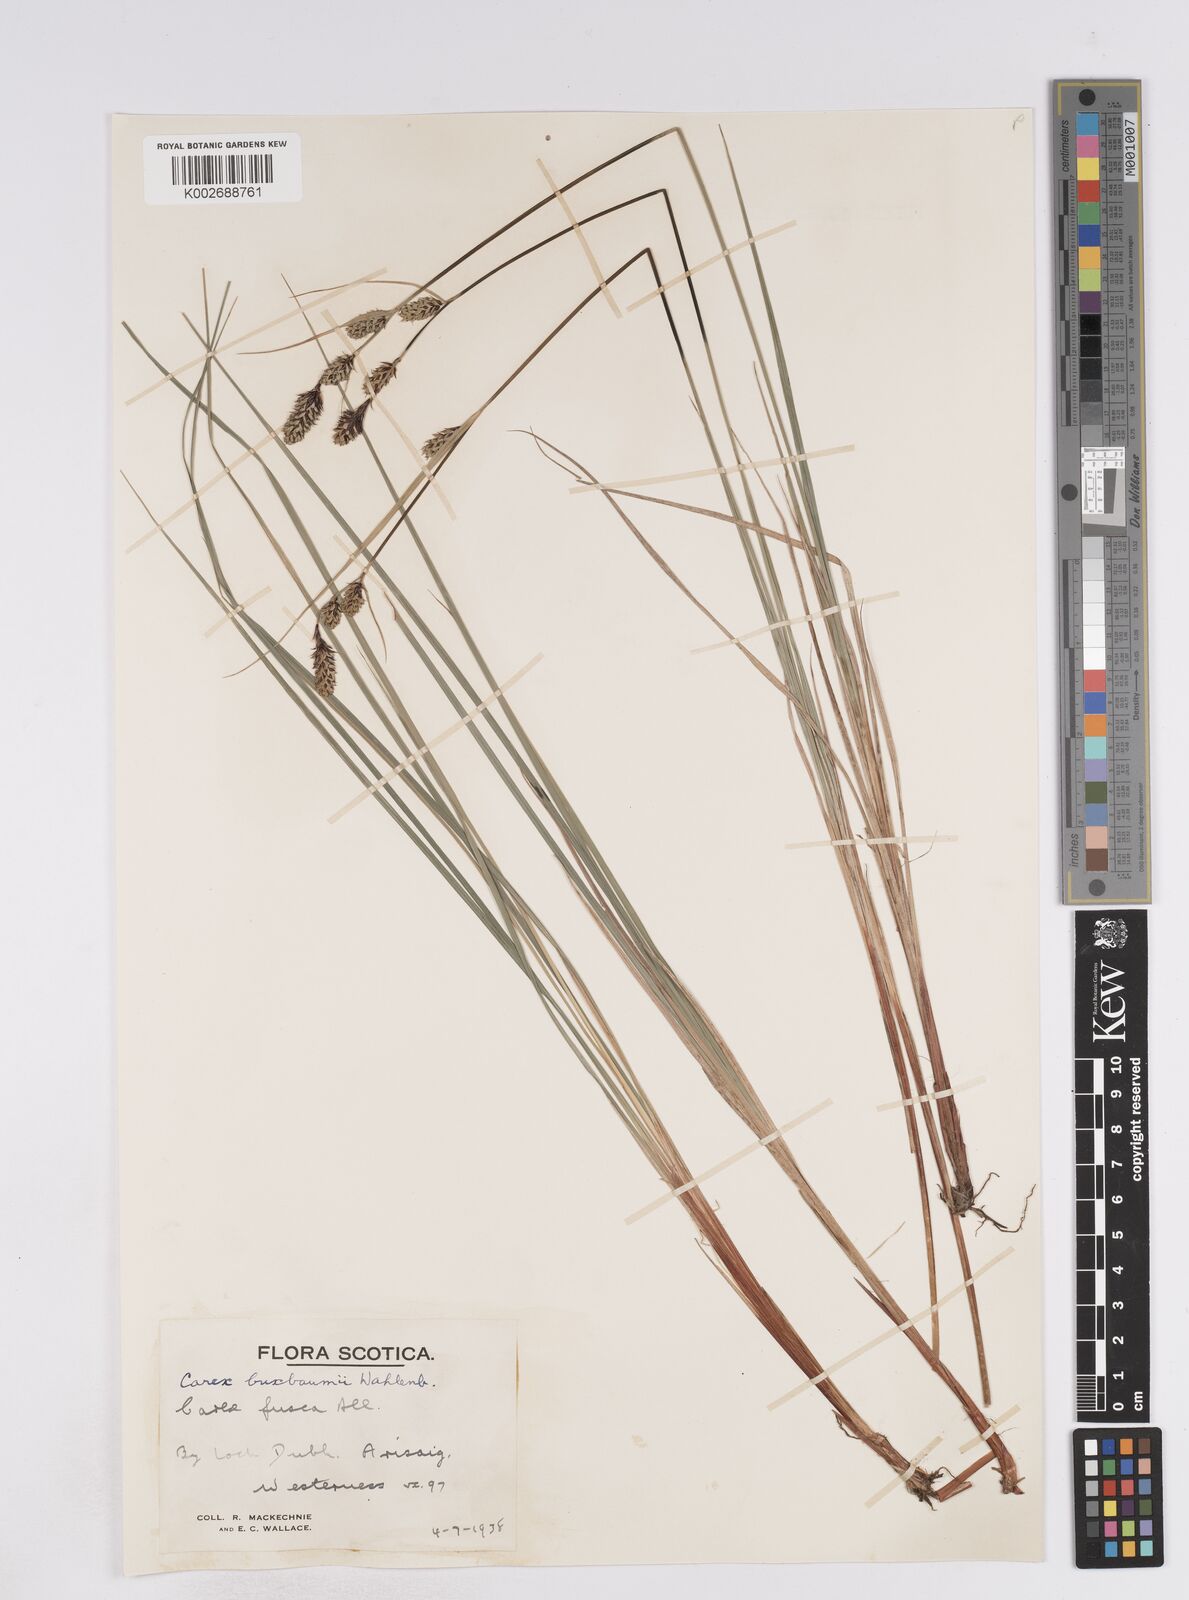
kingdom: Plantae
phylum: Tracheophyta
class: Liliopsida
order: Poales
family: Cyperaceae
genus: Carex
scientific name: Carex buxbaumii
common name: Club sedge
